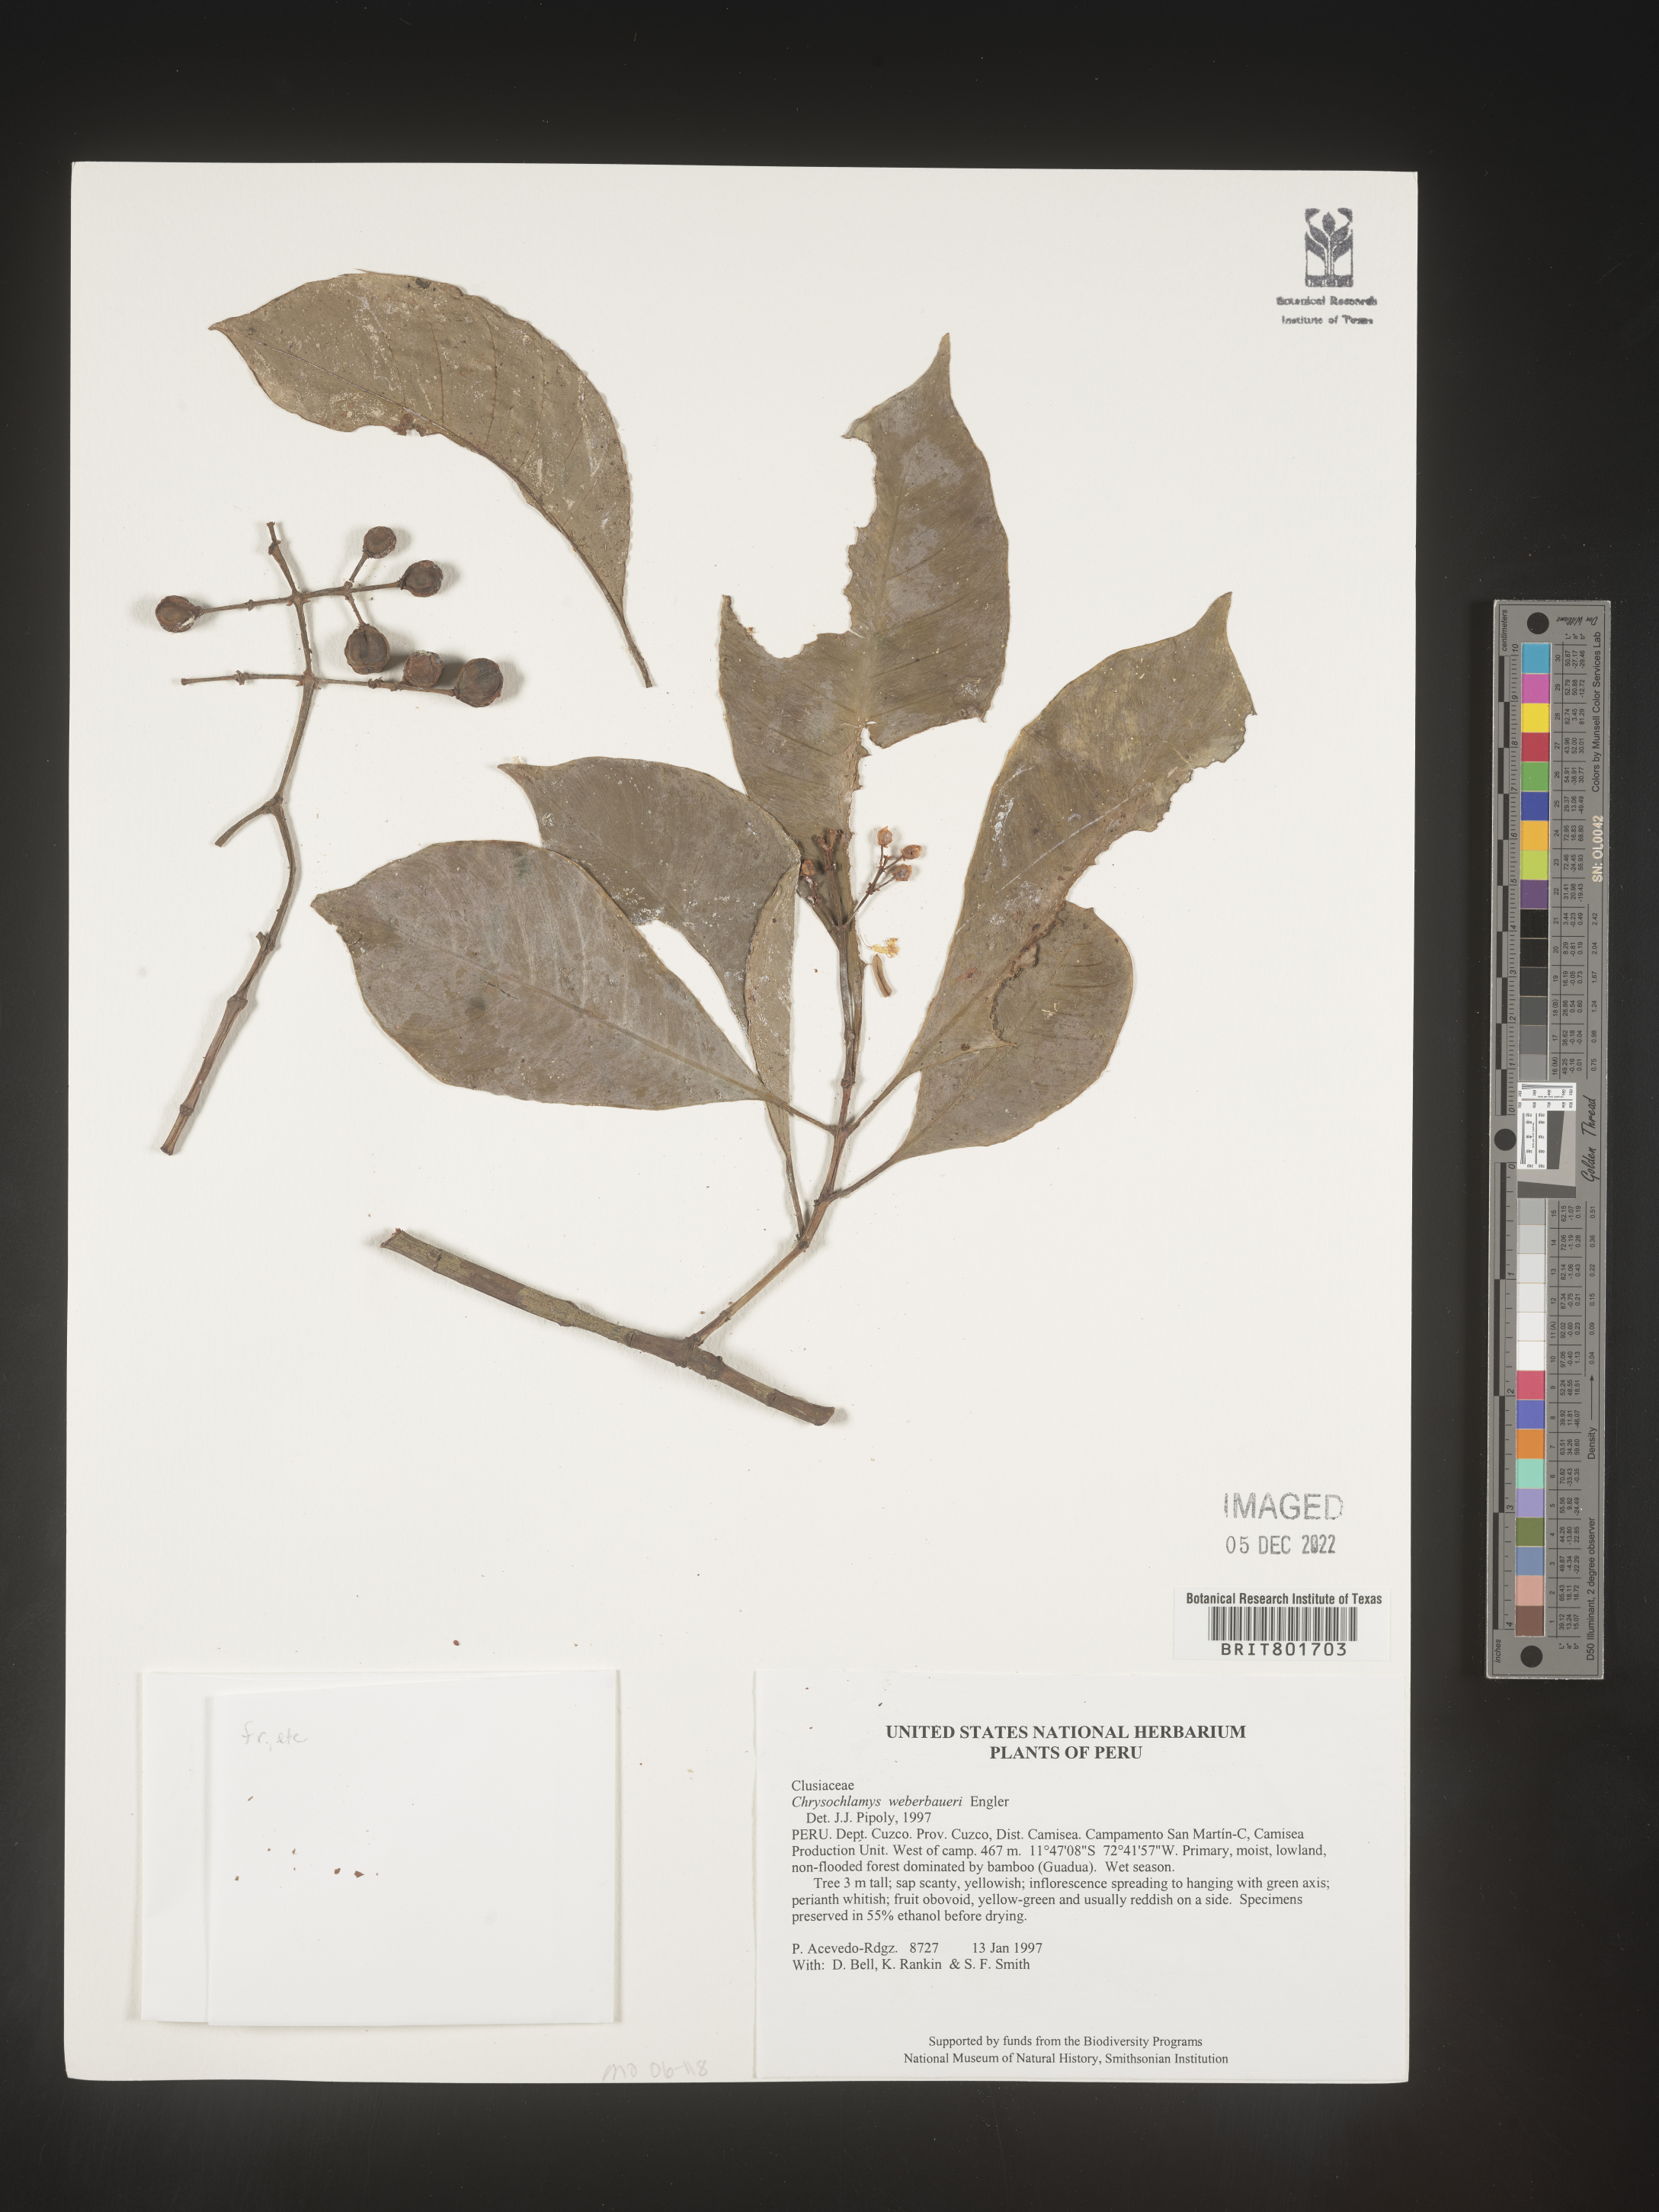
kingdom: Plantae
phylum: Tracheophyta
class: Magnoliopsida
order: Malpighiales
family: Clusiaceae
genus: Chrysochlamys
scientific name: Chrysochlamys
